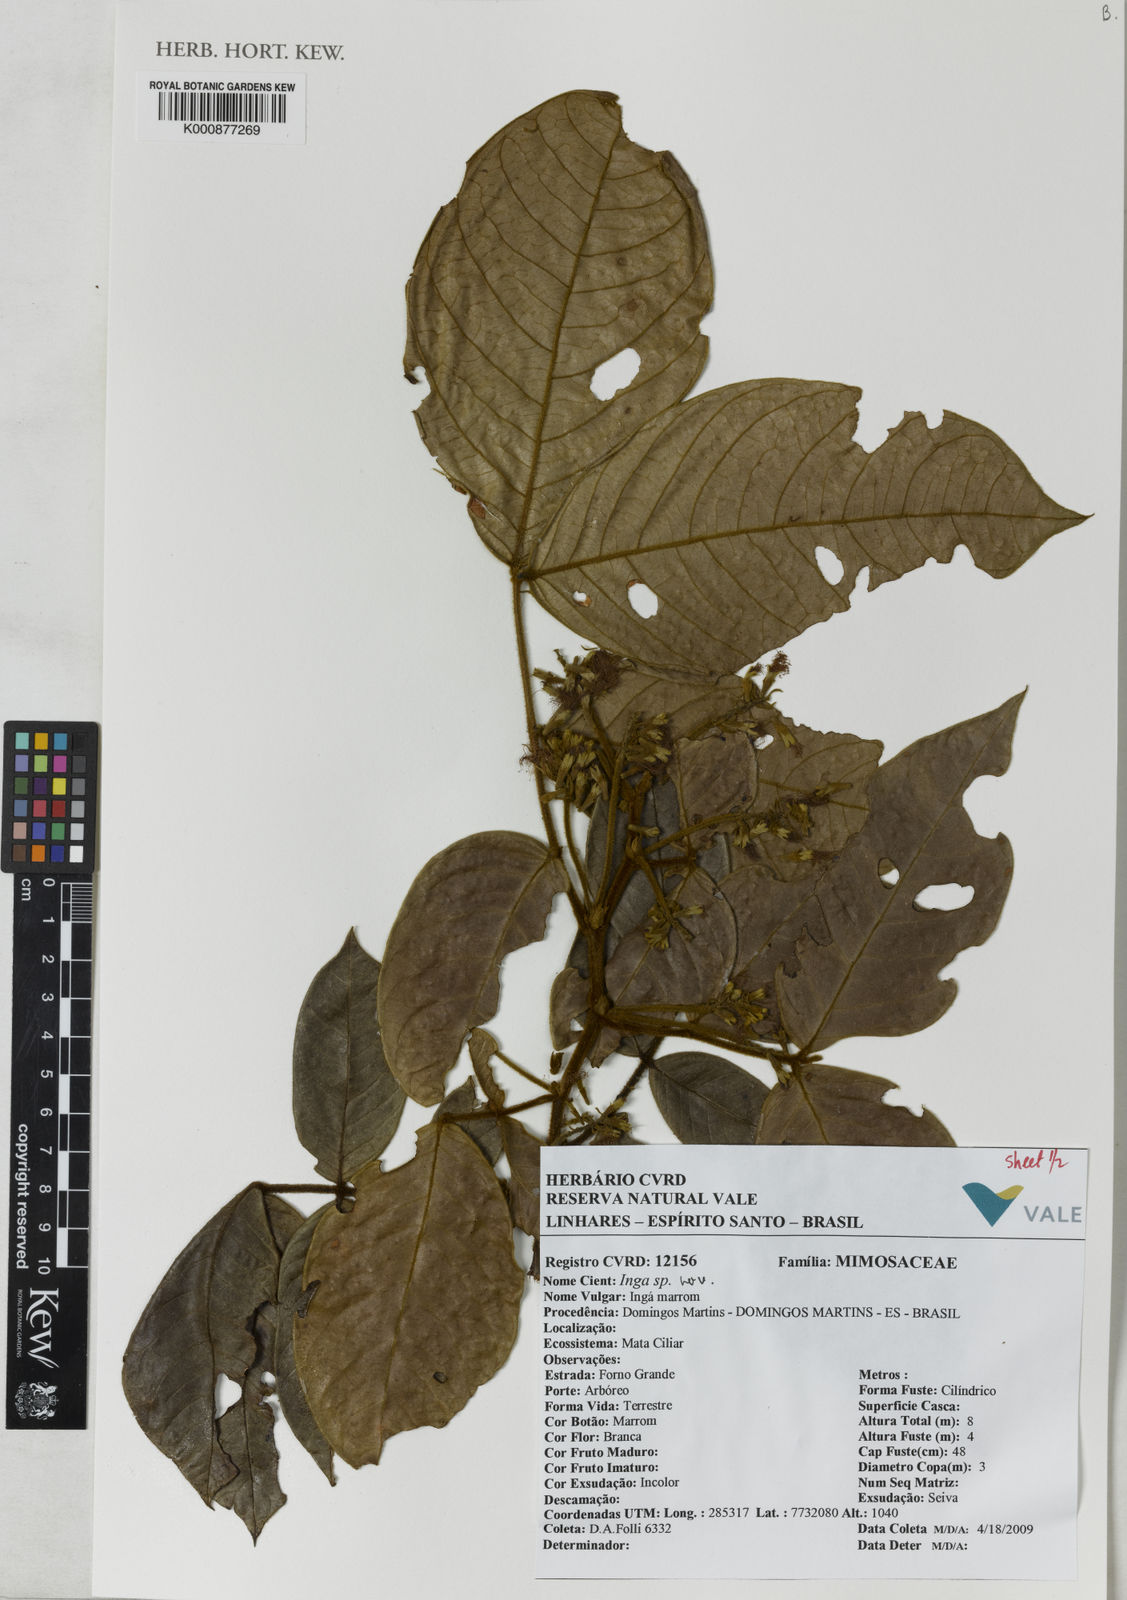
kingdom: Plantae
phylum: Tracheophyta
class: Magnoliopsida
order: Fabales
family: Fabaceae
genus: Inga
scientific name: Inga
